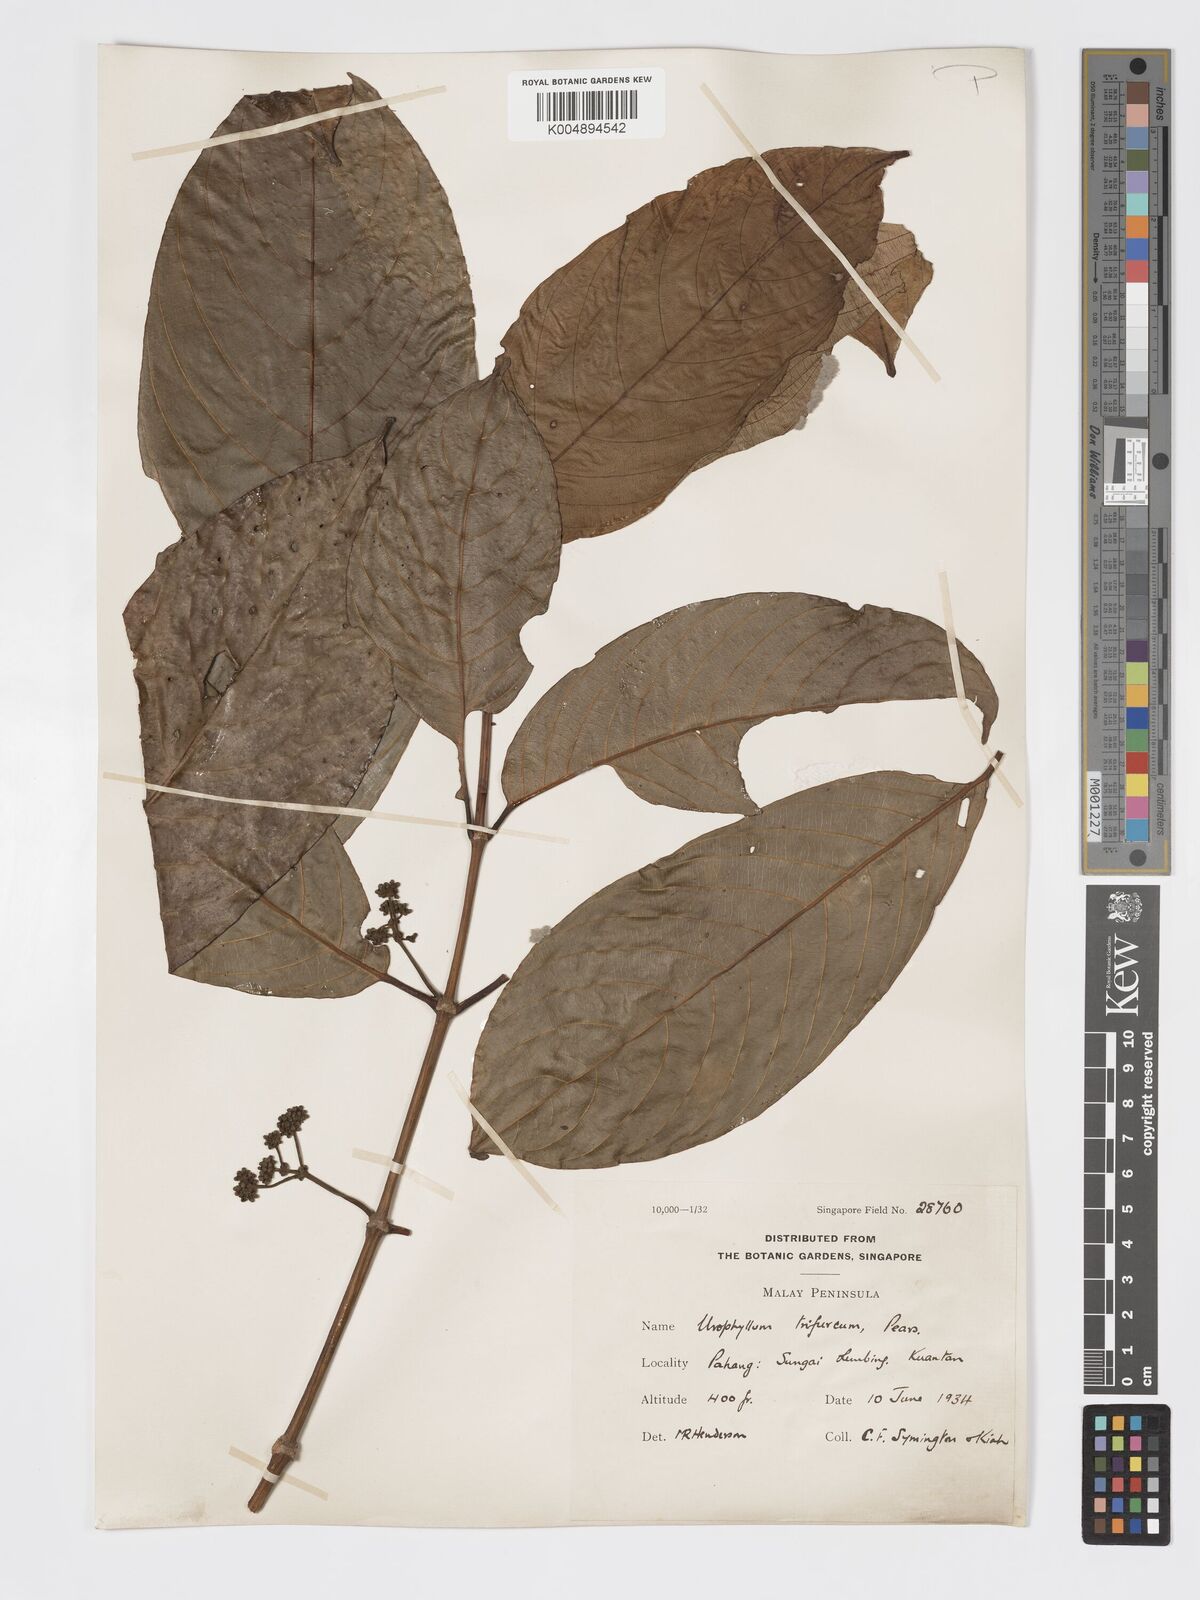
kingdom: Plantae
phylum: Tracheophyta
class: Magnoliopsida
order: Gentianales
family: Rubiaceae
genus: Urophyllum
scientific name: Urophyllum malayense
